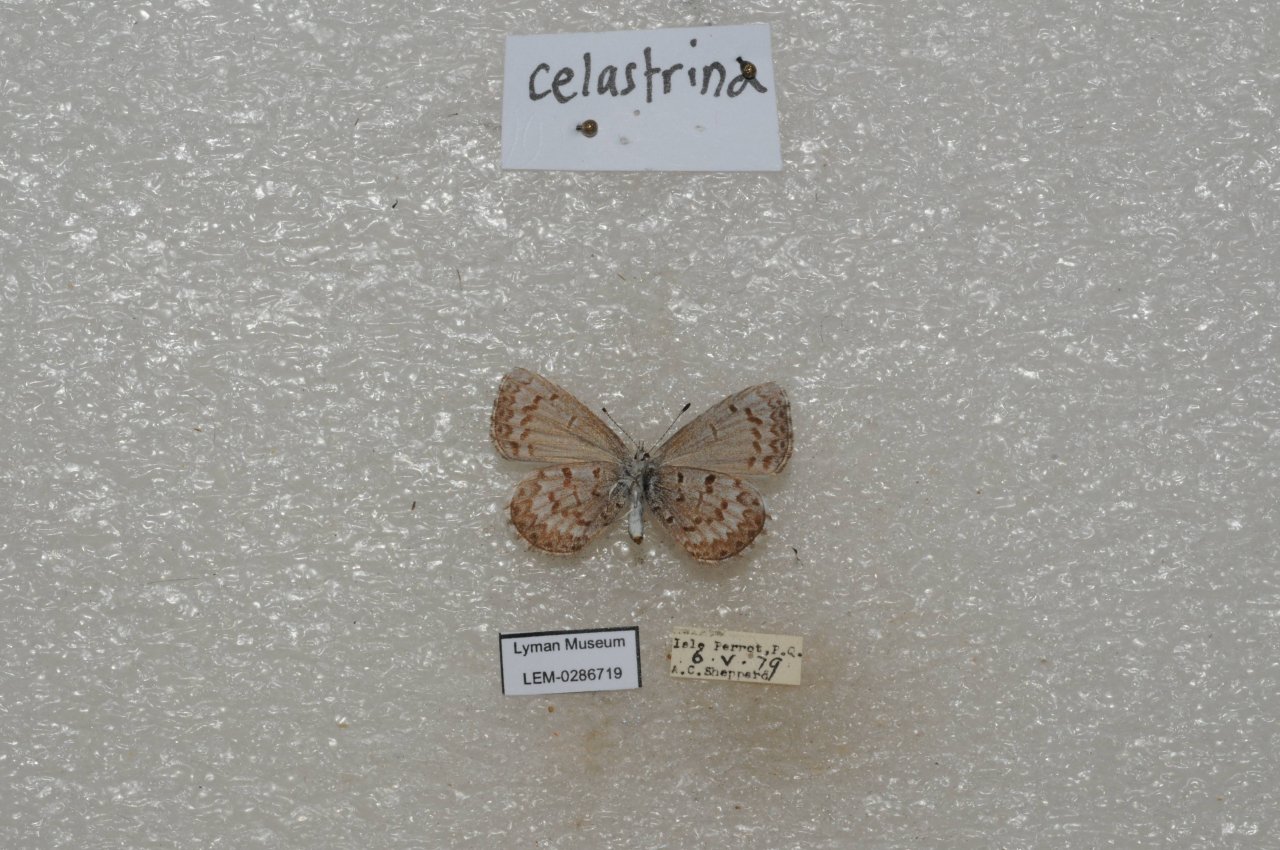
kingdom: Animalia
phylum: Arthropoda
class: Insecta
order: Lepidoptera
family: Lycaenidae
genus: Celastrina
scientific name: Celastrina lucia
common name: Northern Spring Azure
